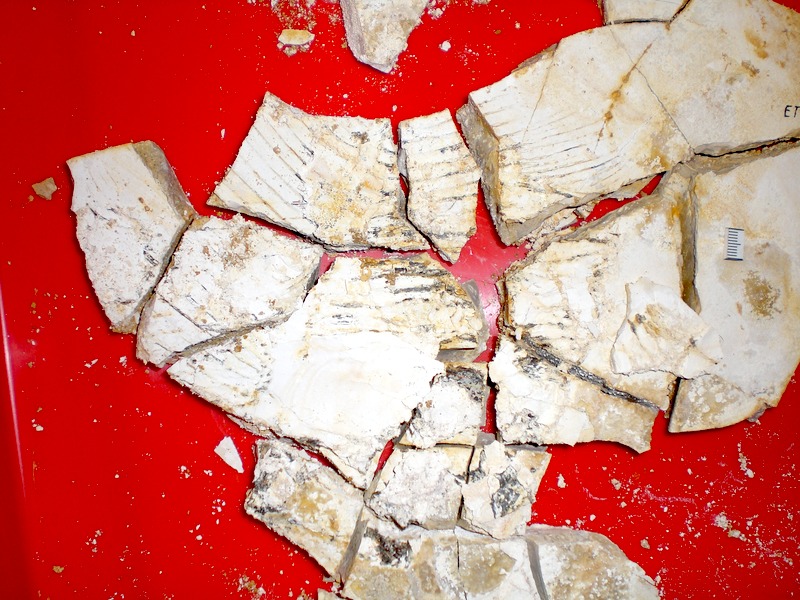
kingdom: Animalia
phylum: Chordata
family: Pycnodontidae
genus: Turbomesodon
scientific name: Turbomesodon relegans
